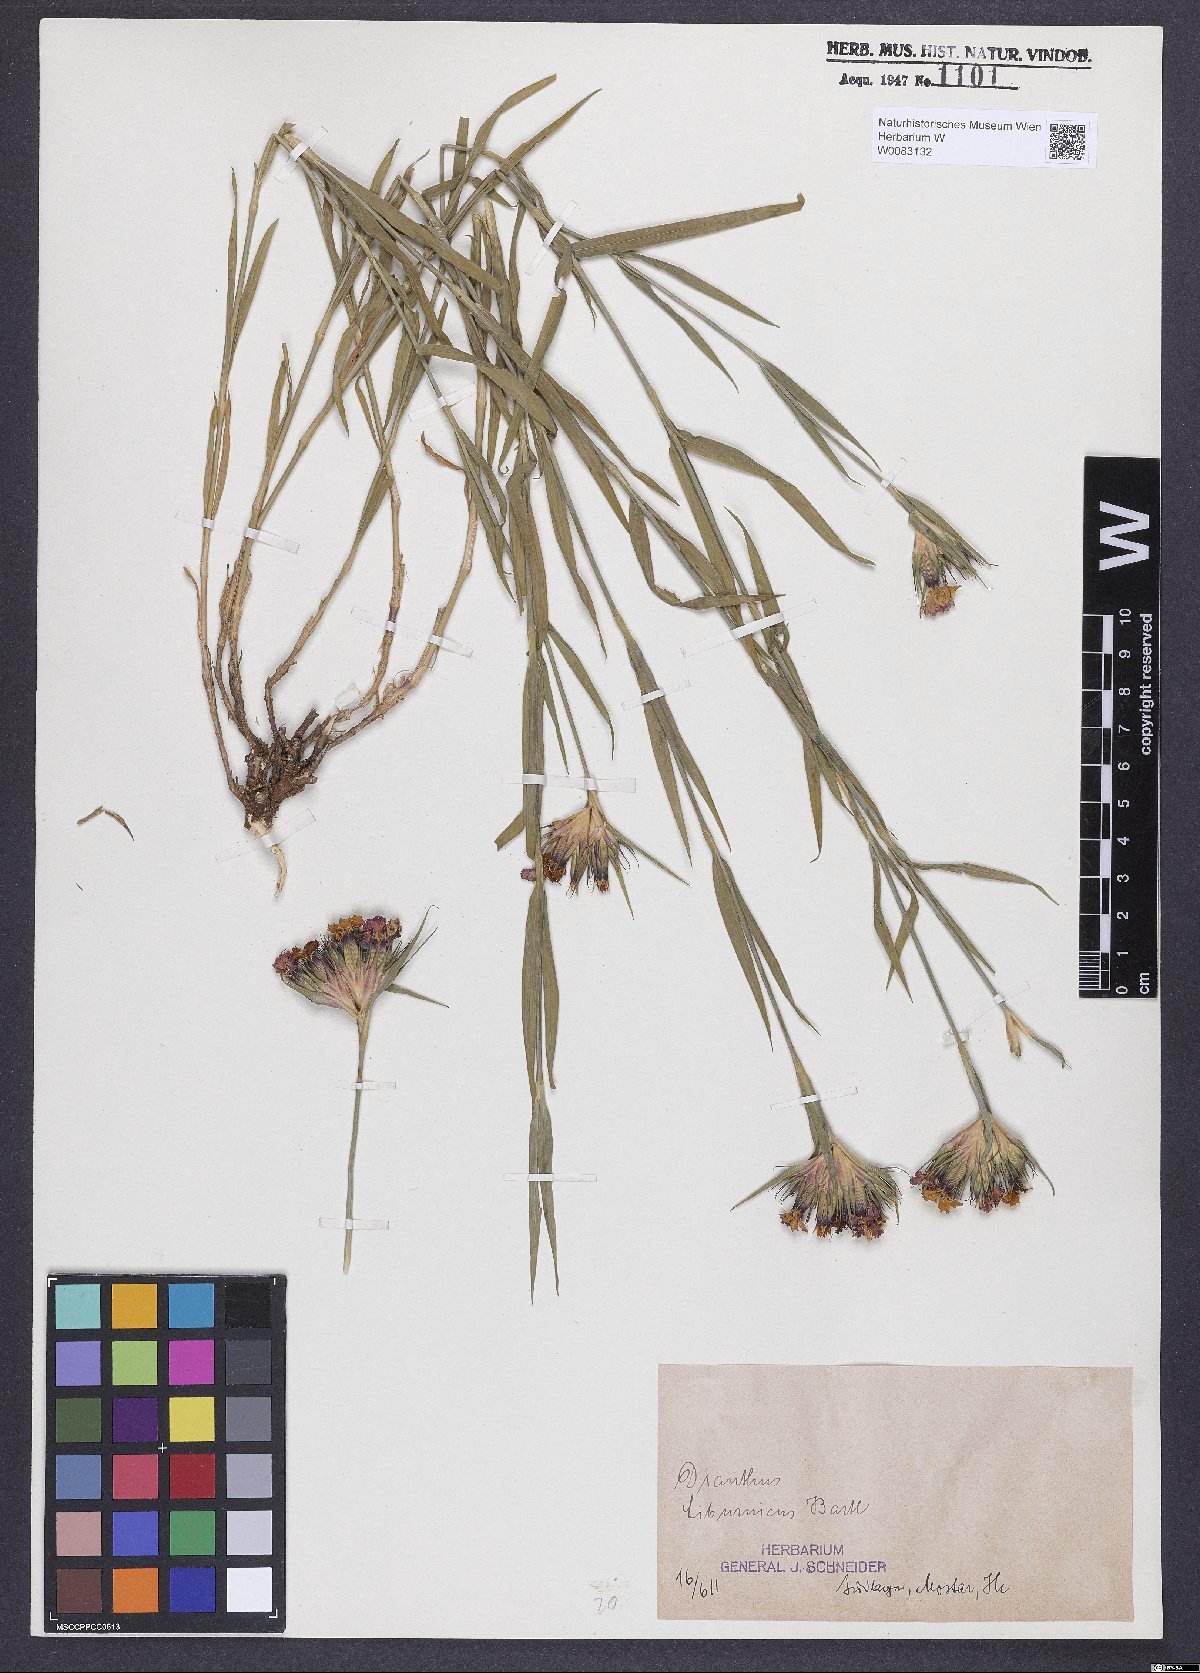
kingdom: Plantae
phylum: Tracheophyta
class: Magnoliopsida
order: Caryophyllales
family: Caryophyllaceae
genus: Dianthus
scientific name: Dianthus balbisii
